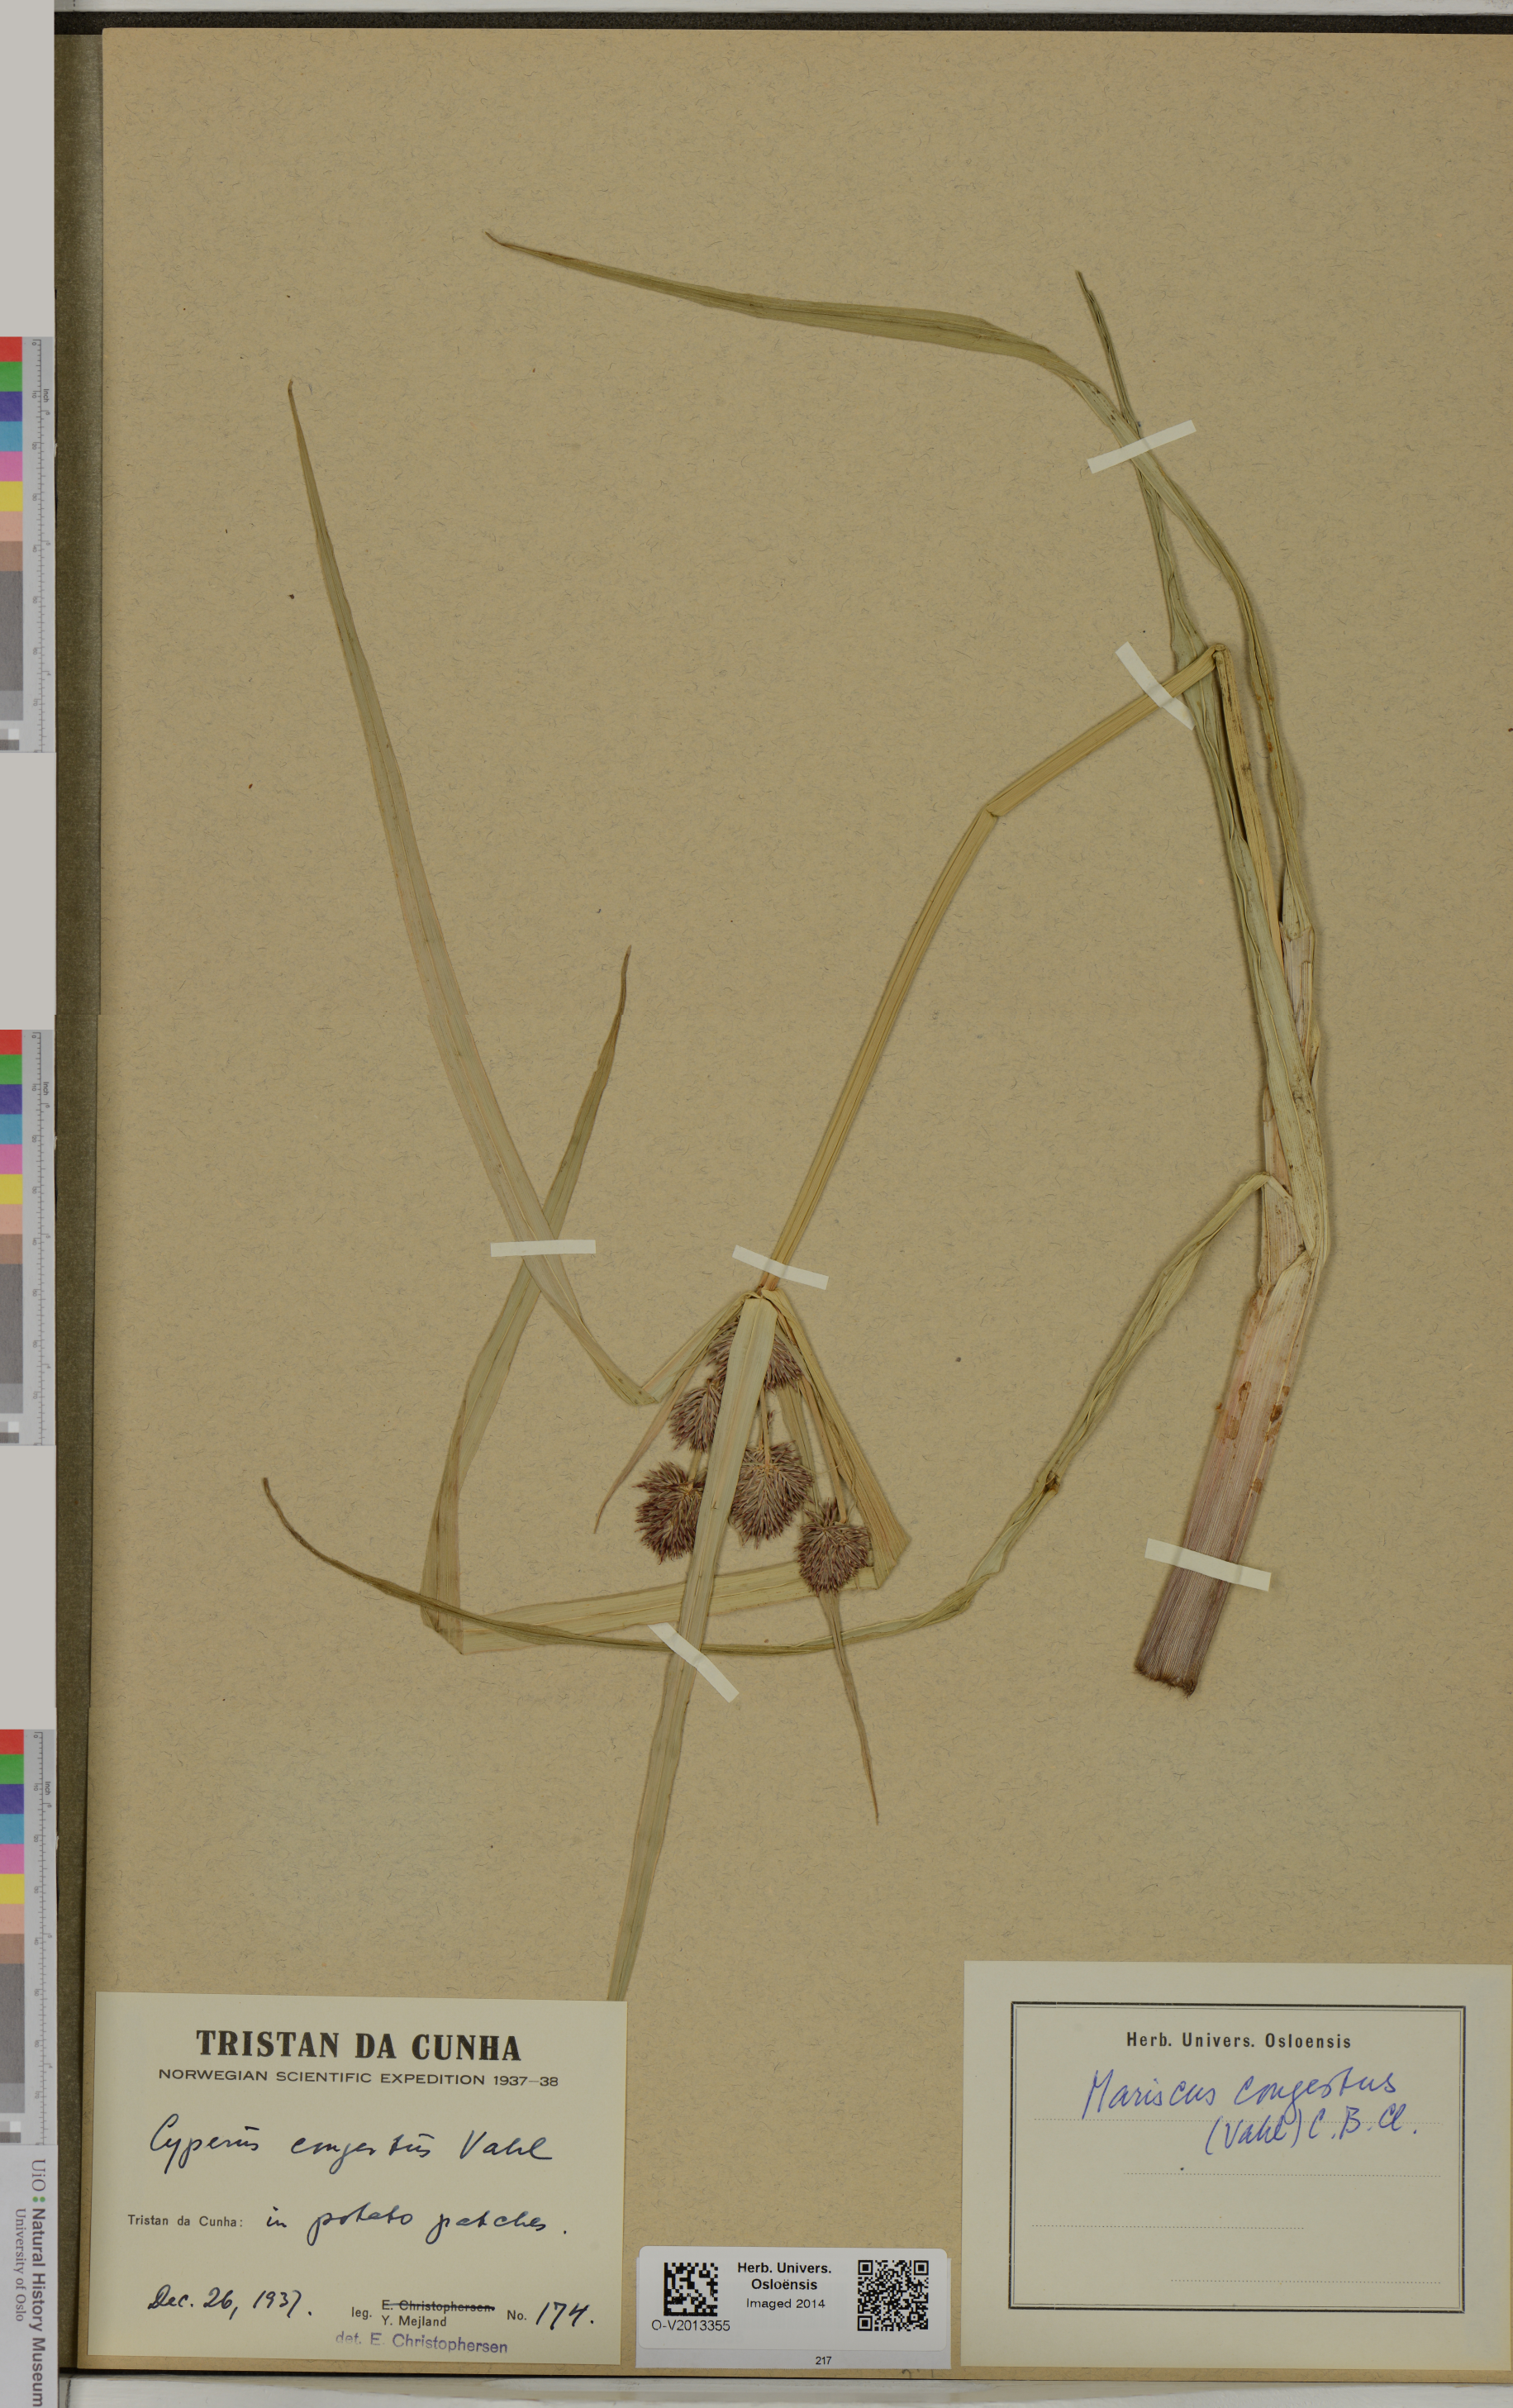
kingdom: Plantae
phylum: Tracheophyta
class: Liliopsida
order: Poales
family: Cyperaceae
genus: Cyperus
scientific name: Cyperus congestus
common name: Dense flat sedge
